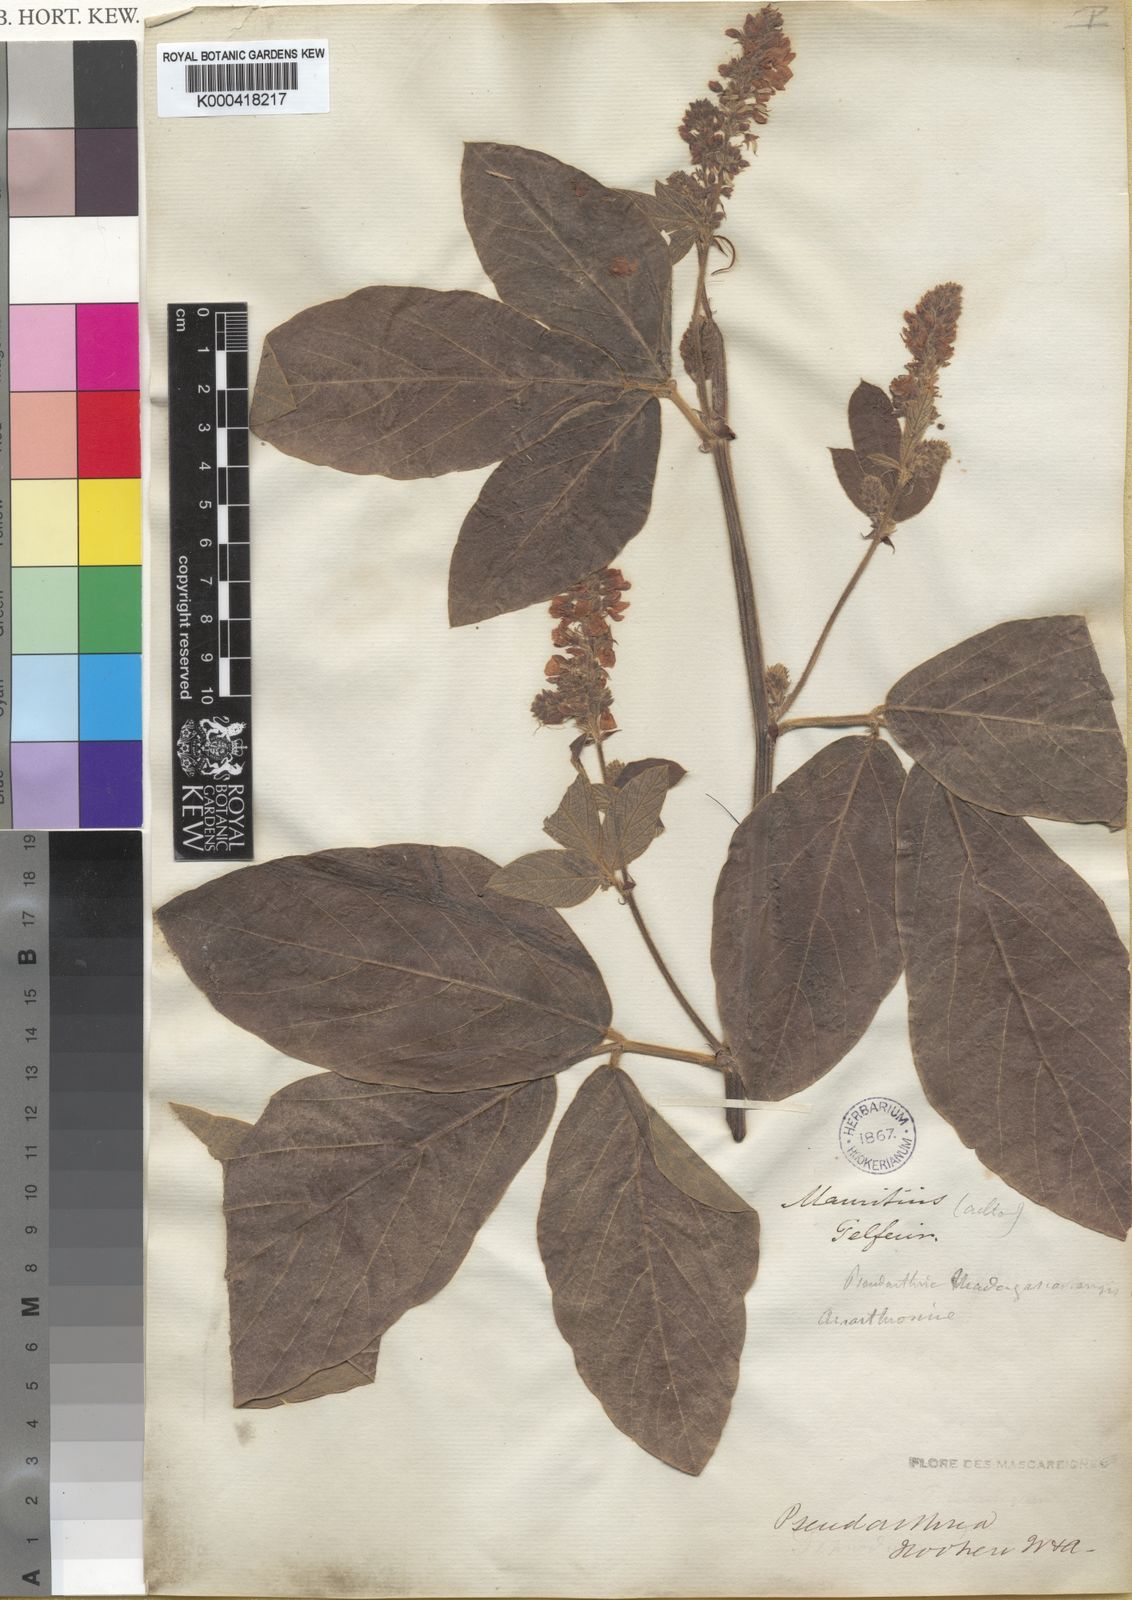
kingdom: Plantae
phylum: Tracheophyta
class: Magnoliopsida
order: Fabales
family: Fabaceae
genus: Pseudarthria
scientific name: Pseudarthria hookeri
